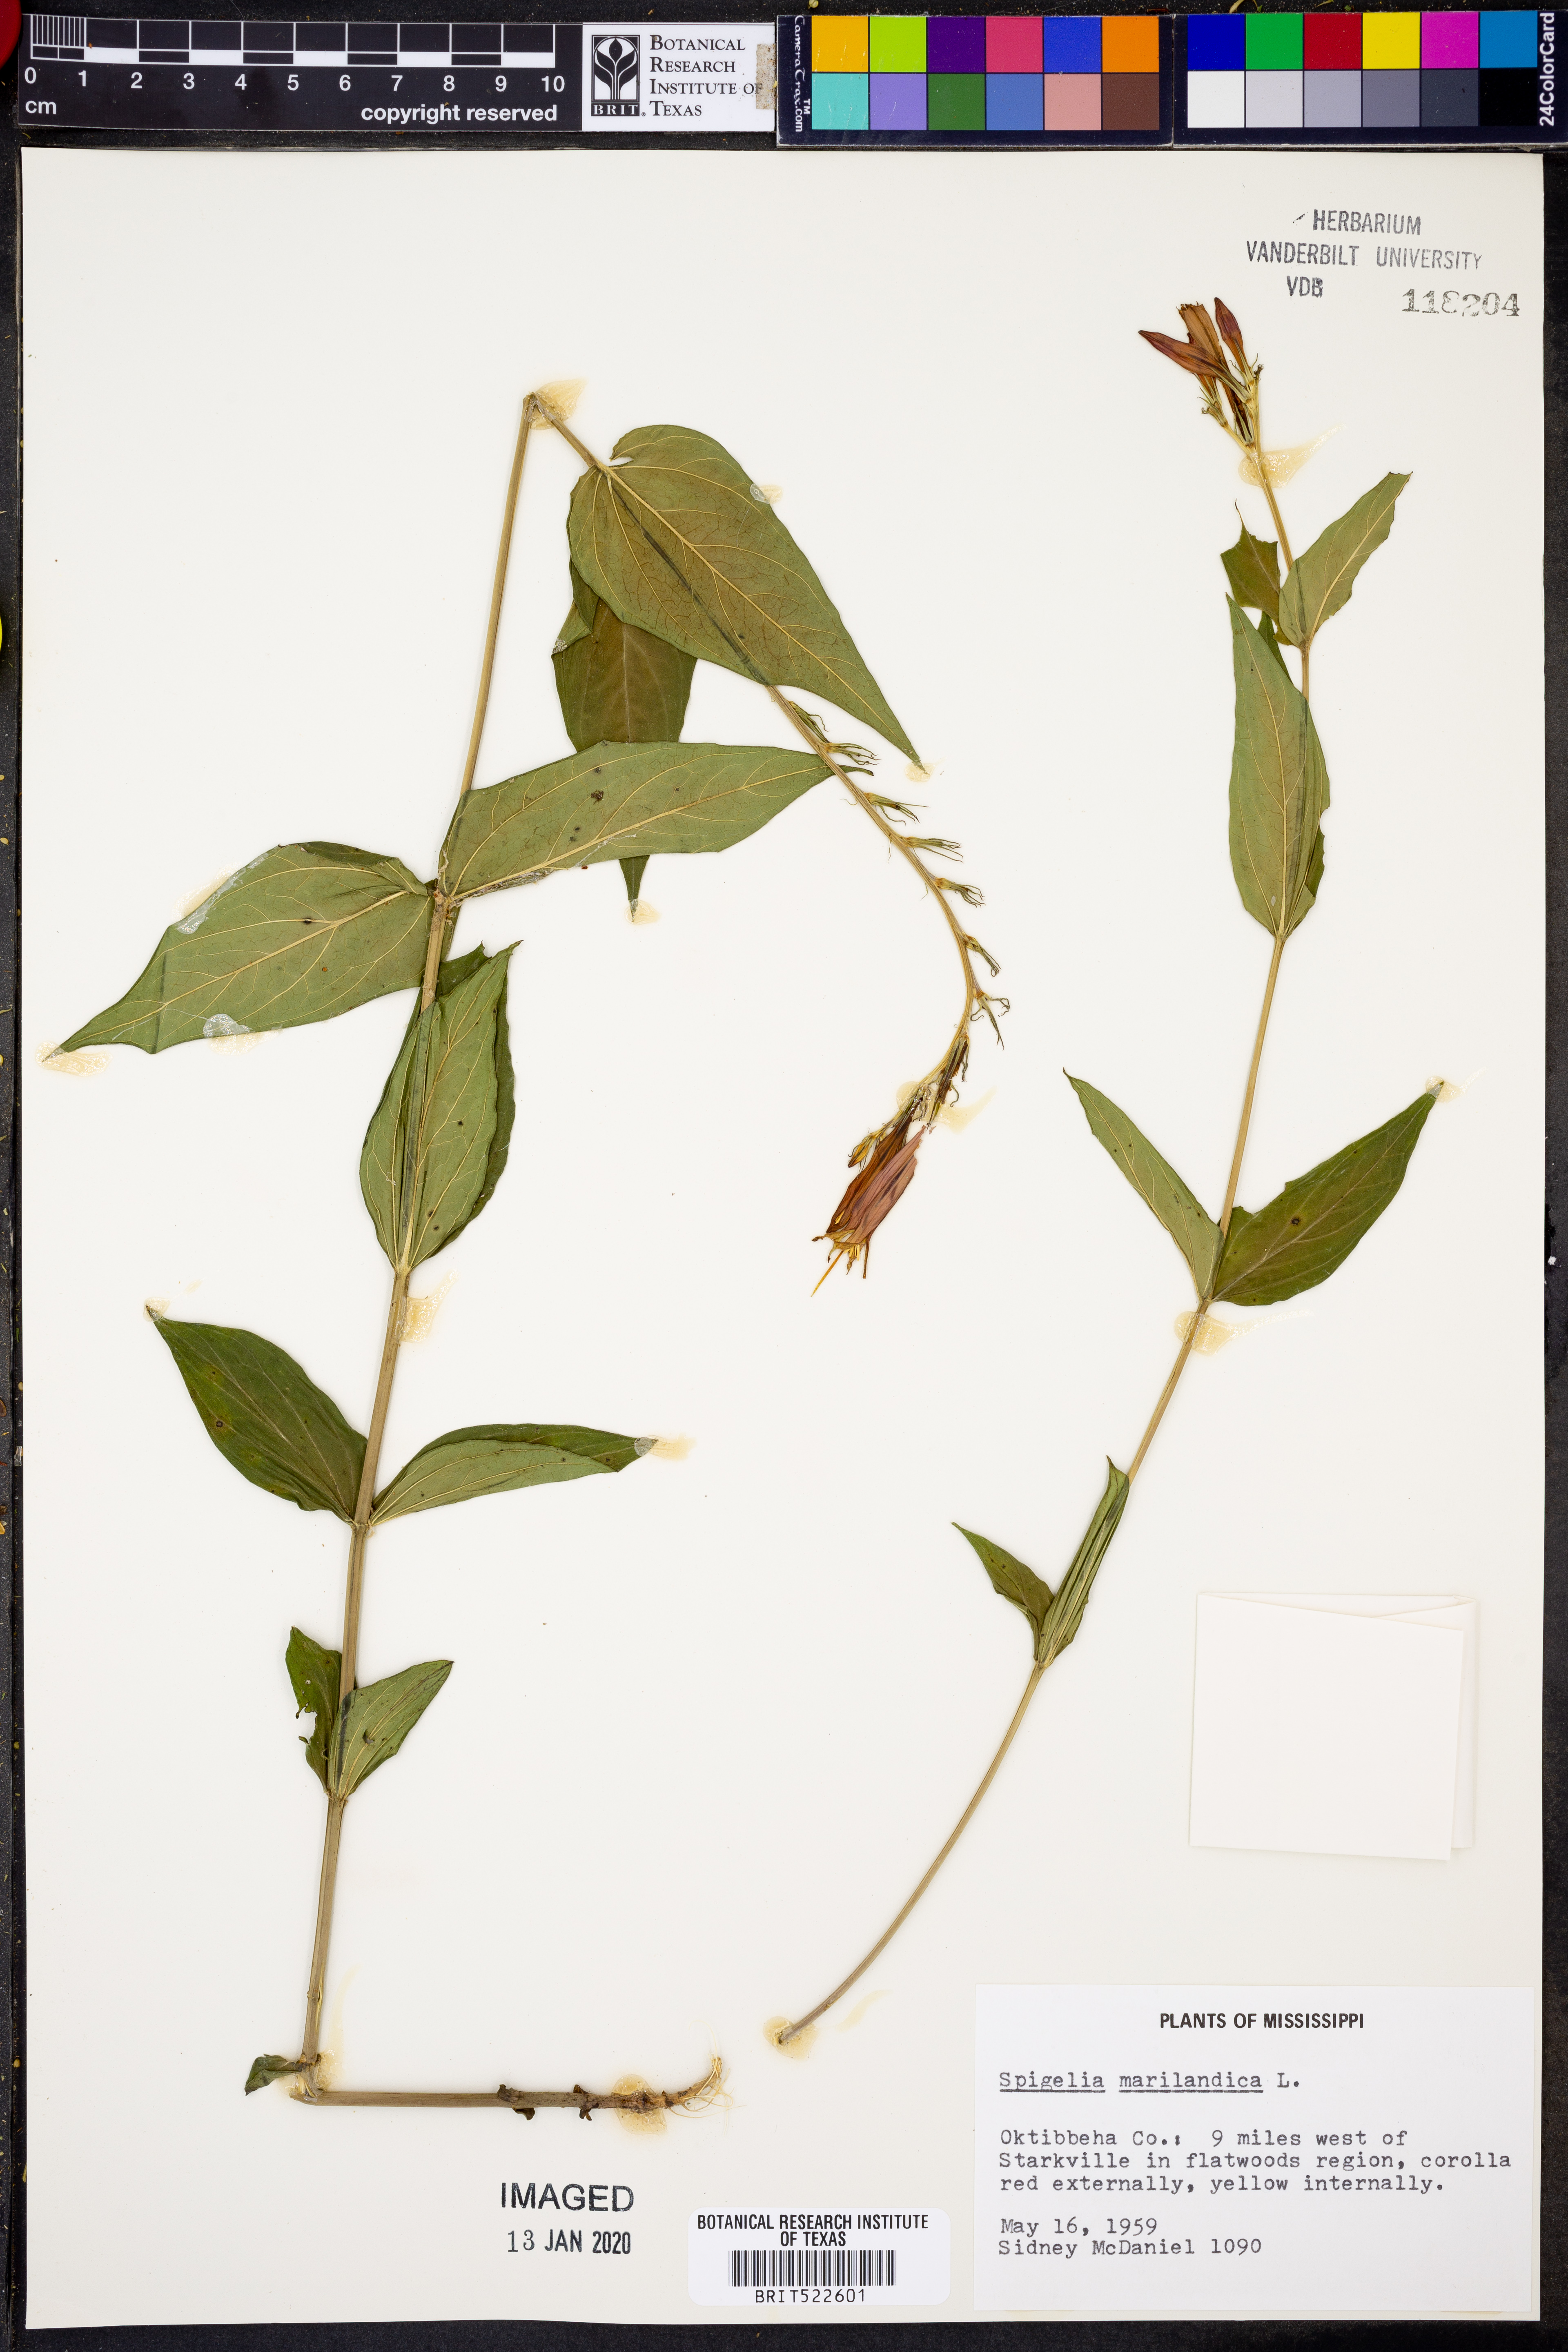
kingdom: Plantae
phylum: Tracheophyta
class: Magnoliopsida
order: Gentianales
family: Loganiaceae
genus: Spigelia
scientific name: Spigelia marilandica
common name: Indian-pink
